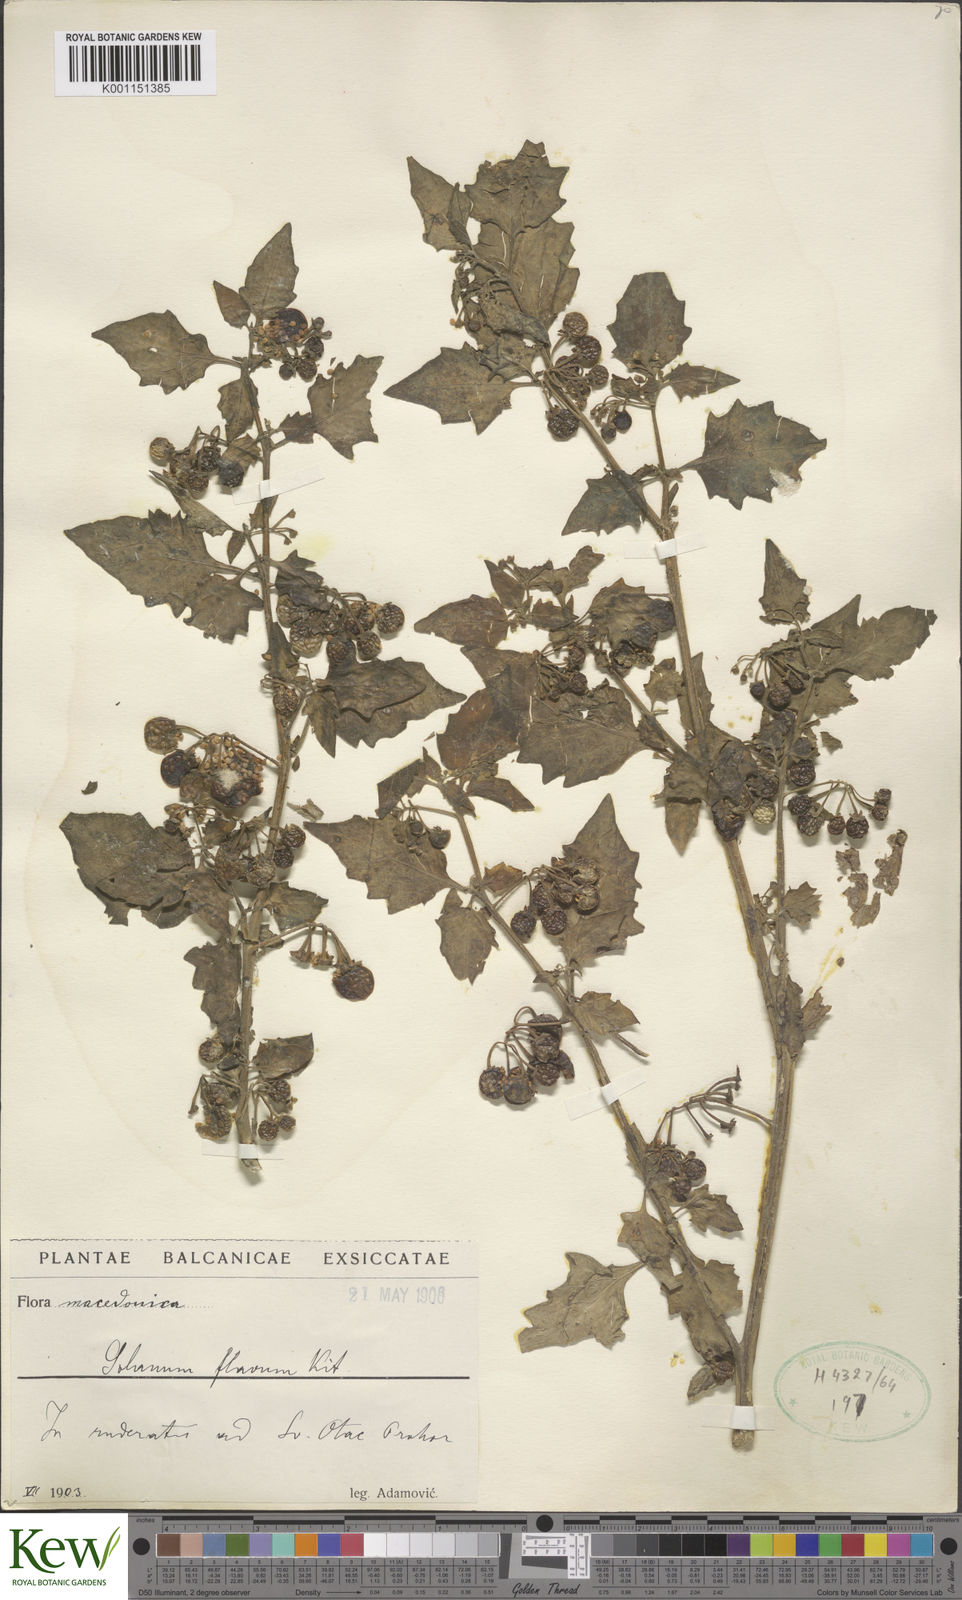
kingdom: Plantae
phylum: Tracheophyta
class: Magnoliopsida
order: Solanales
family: Solanaceae
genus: Solanum
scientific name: Solanum villosum
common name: Red nightshade
